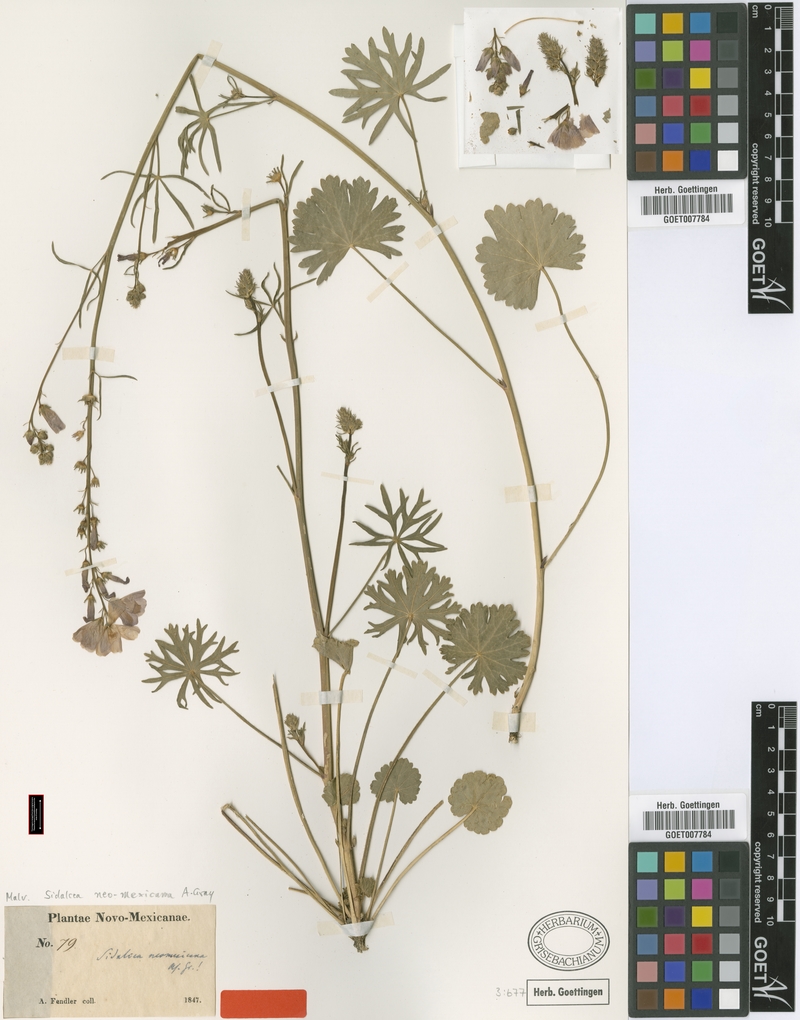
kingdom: Plantae
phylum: Tracheophyta
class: Magnoliopsida
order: Malvales
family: Malvaceae
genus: Sidalcea
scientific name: Sidalcea neomexicana
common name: New mexico checker
